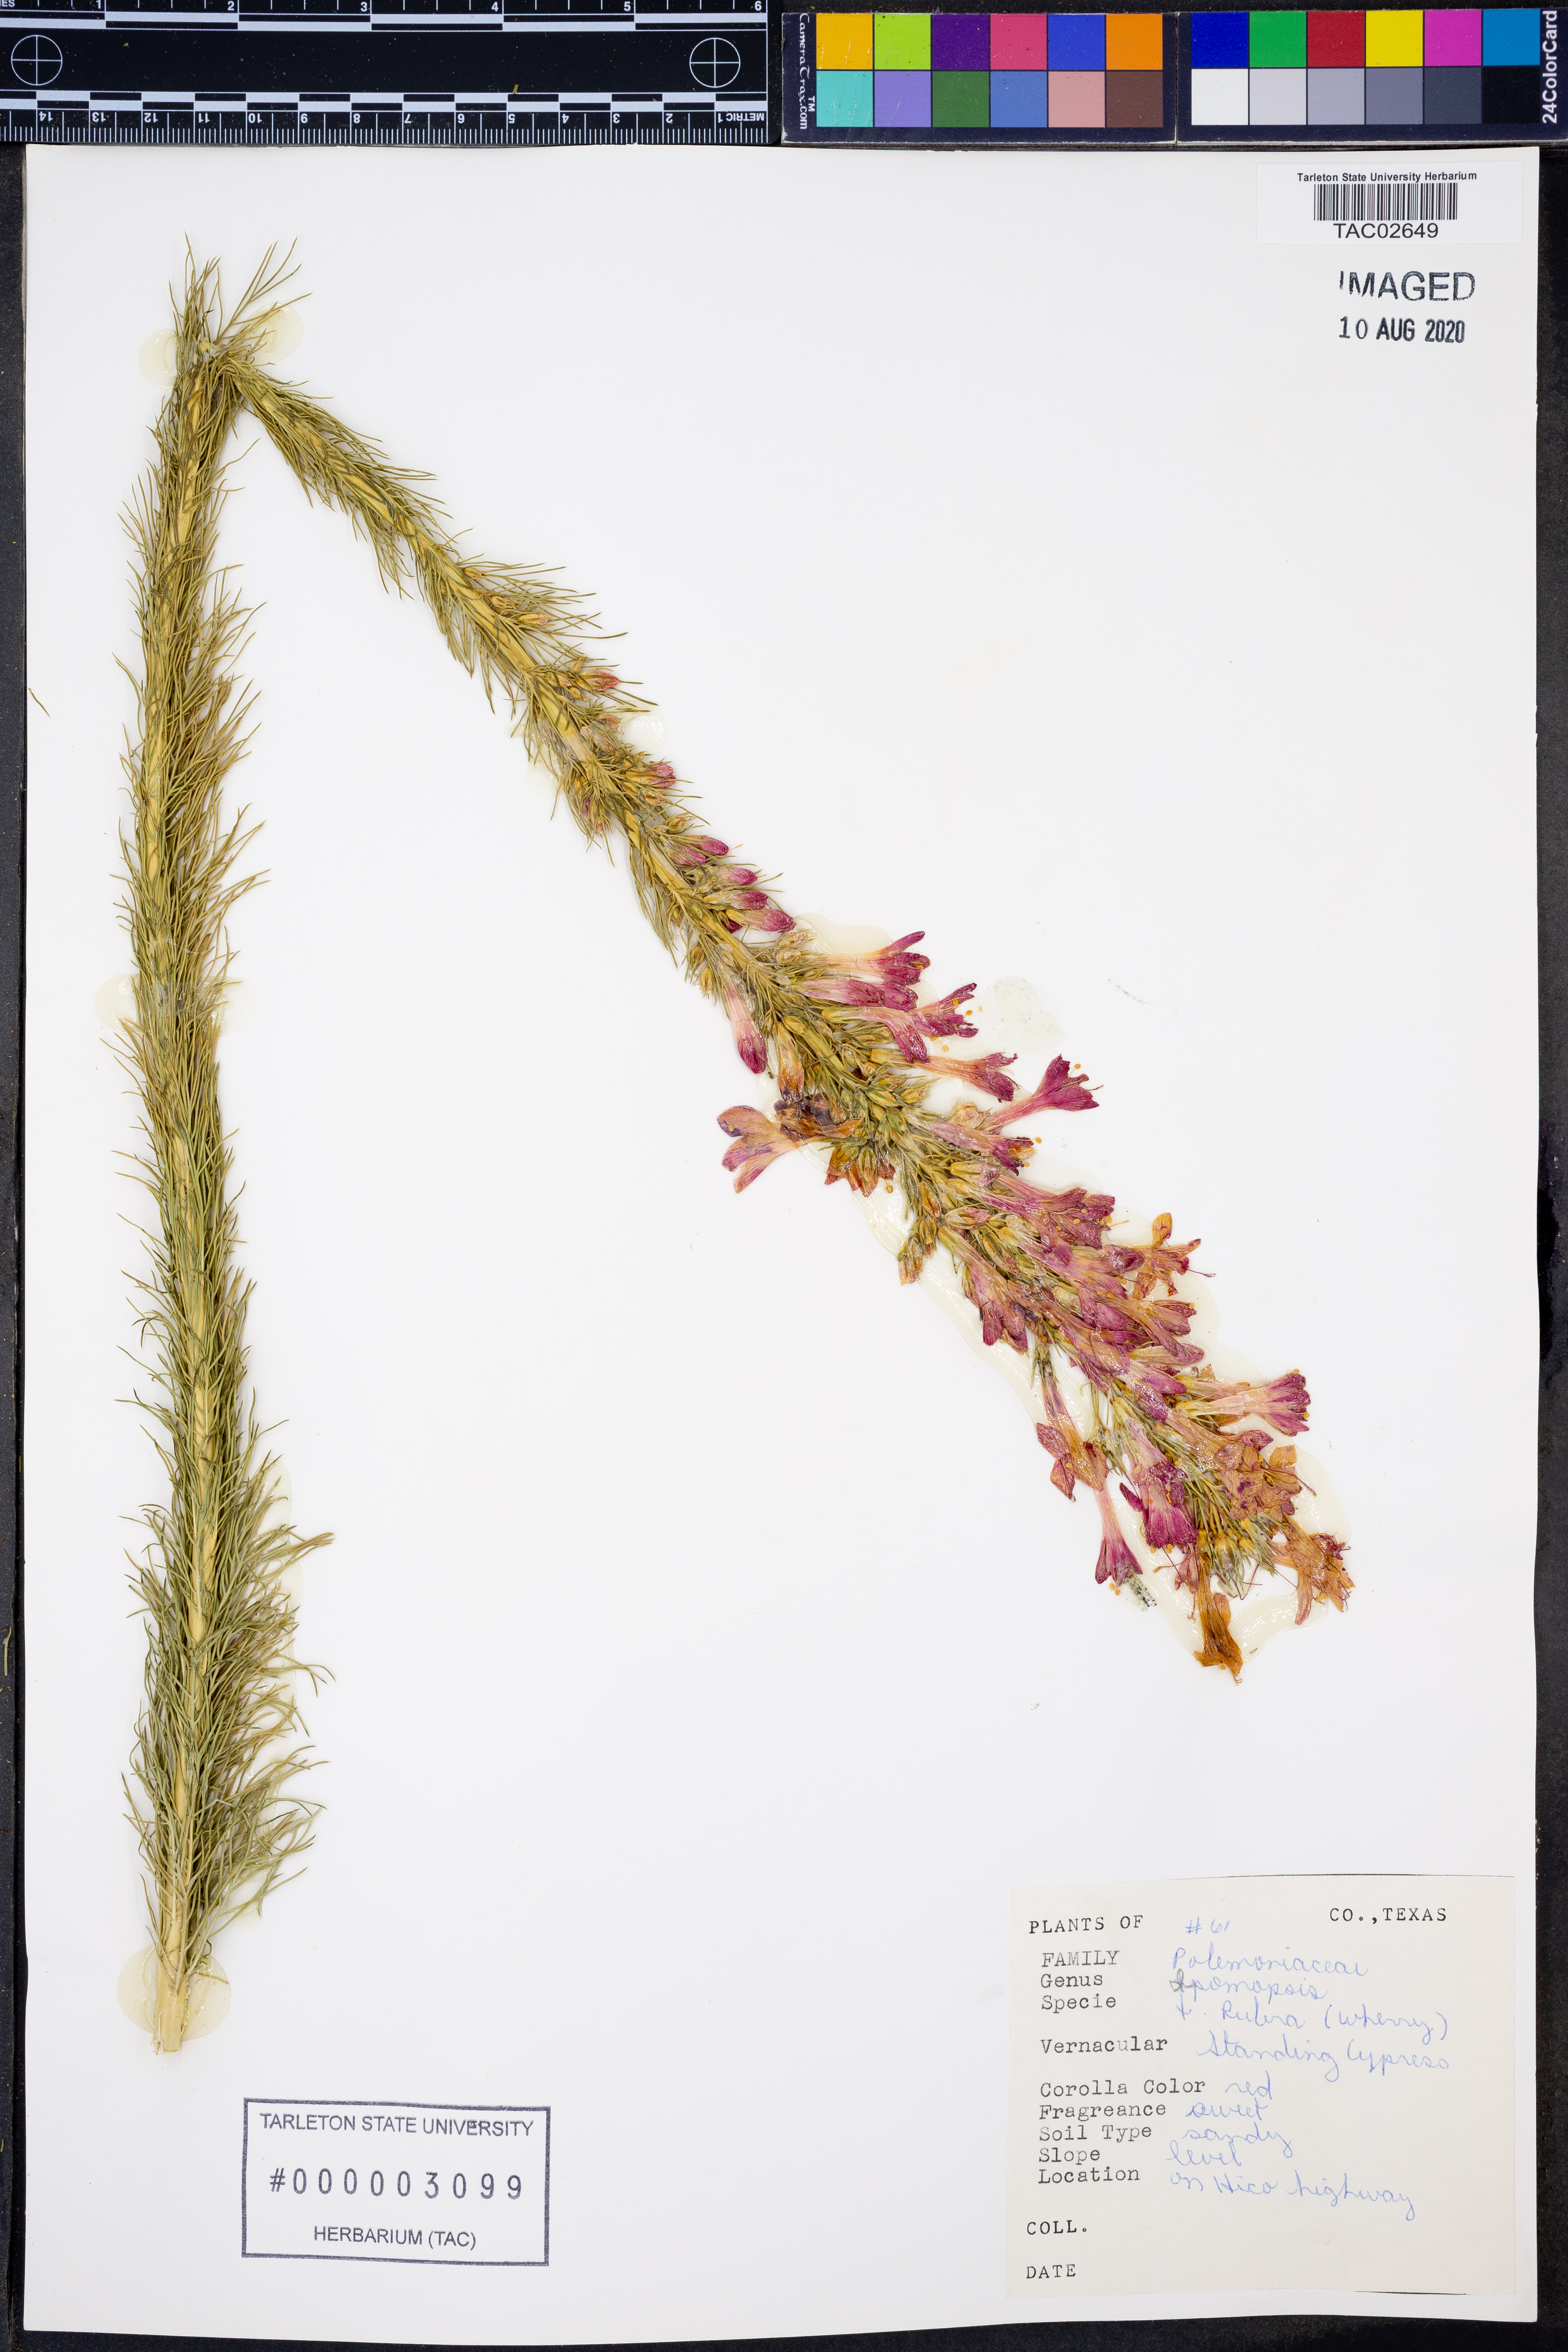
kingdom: Plantae
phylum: Tracheophyta
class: Magnoliopsida
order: Ericales
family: Polemoniaceae
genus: Ipomopsis
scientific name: Ipomopsis rubra
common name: Skyrocket
